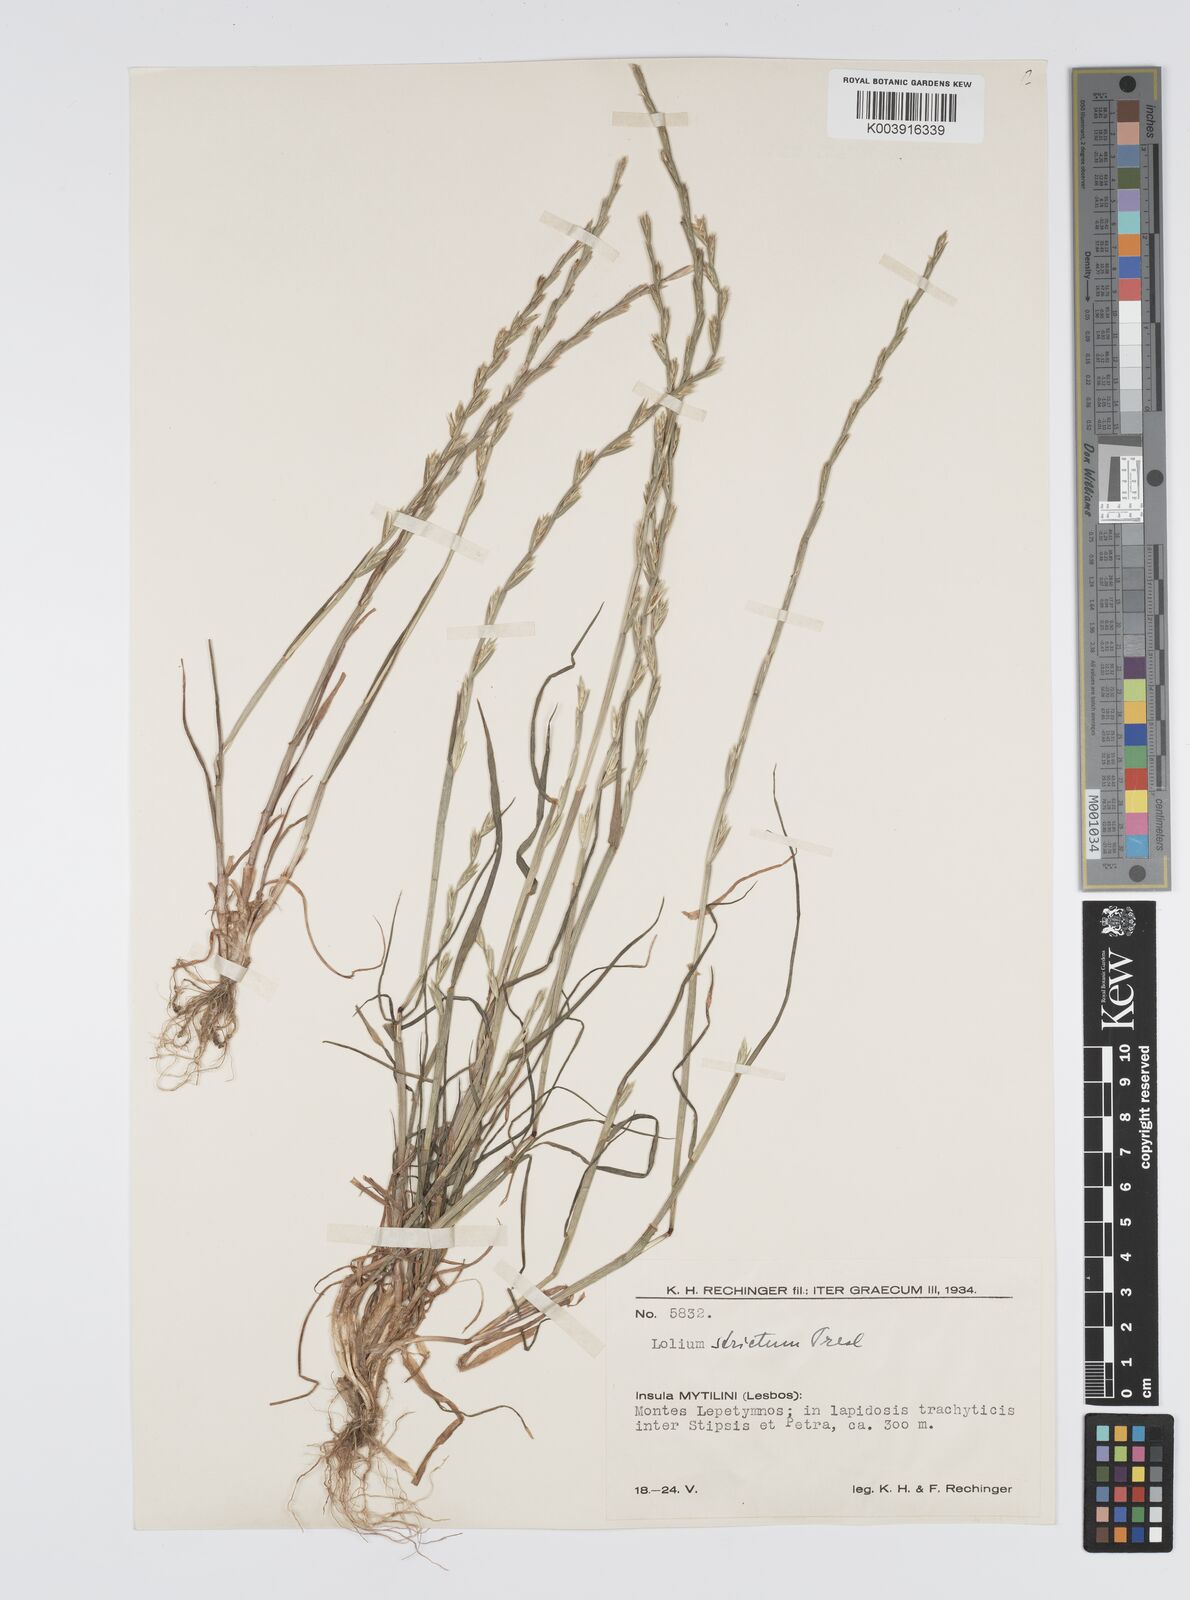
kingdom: Plantae
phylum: Tracheophyta
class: Liliopsida
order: Poales
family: Poaceae
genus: Lolium
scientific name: Lolium rigidum
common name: Wimmera ryegrass
